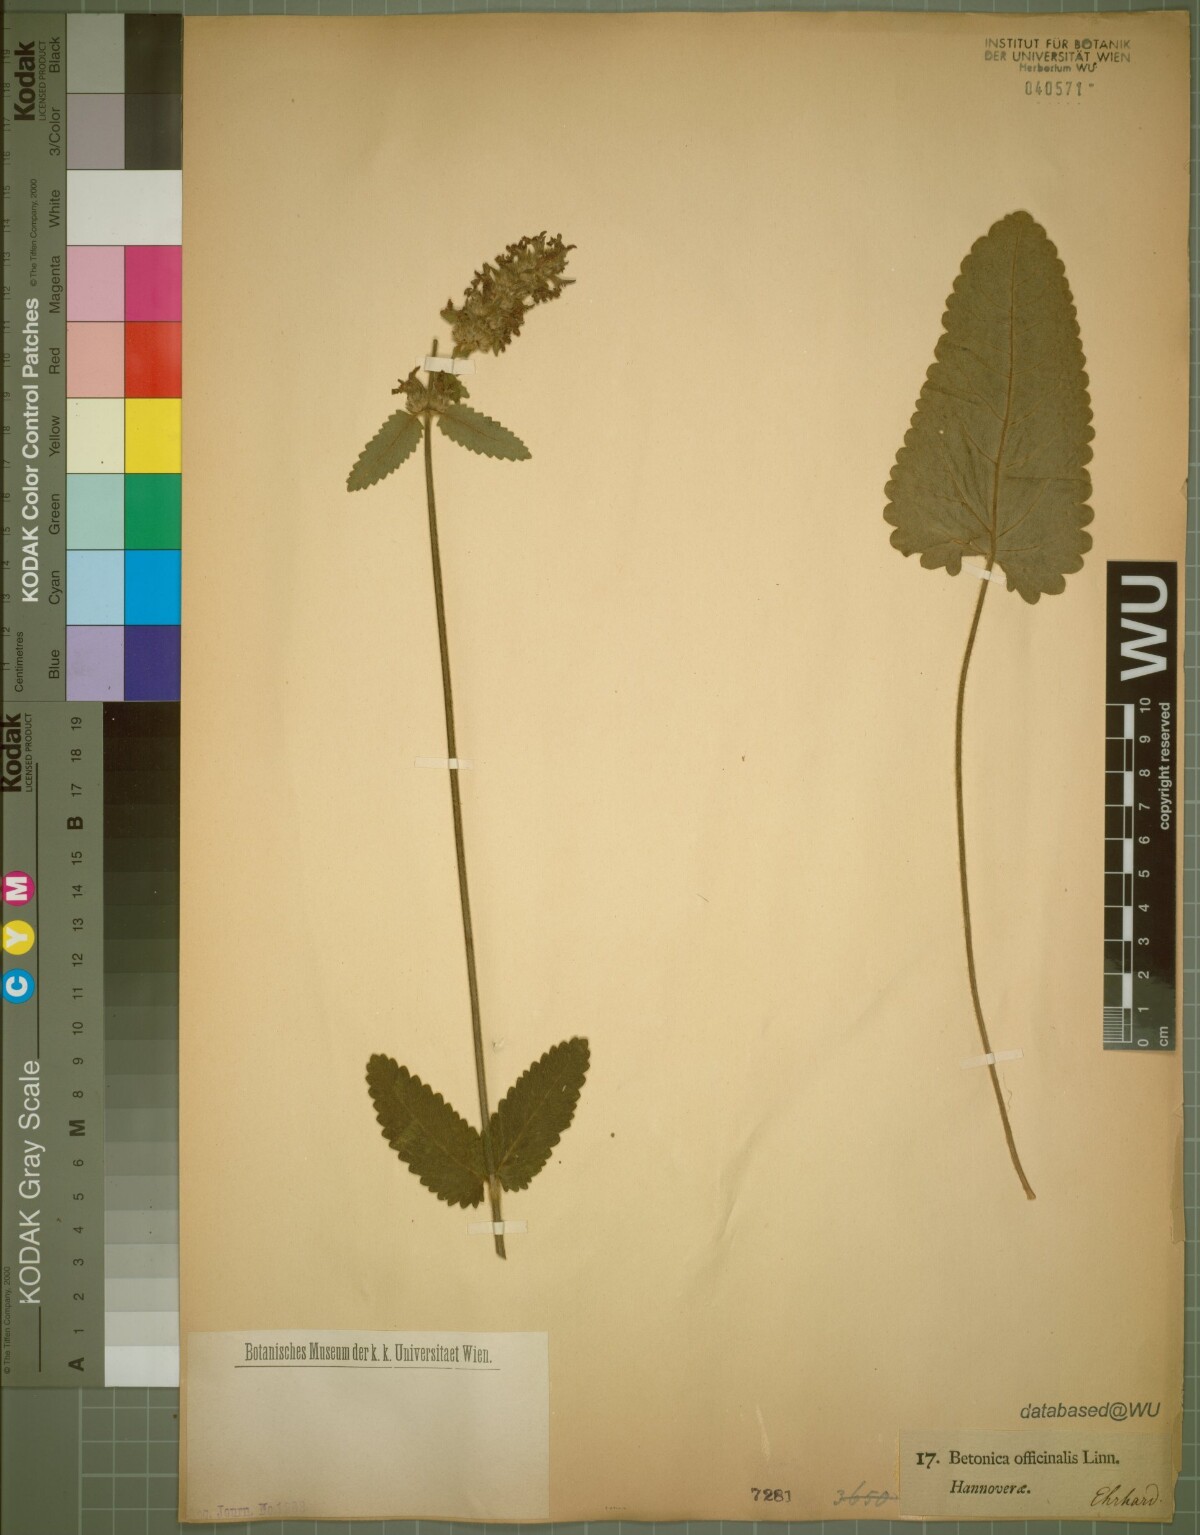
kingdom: Plantae
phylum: Tracheophyta
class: Magnoliopsida
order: Lamiales
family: Lamiaceae
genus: Betonica
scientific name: Betonica officinalis
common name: Bishop's-wort
